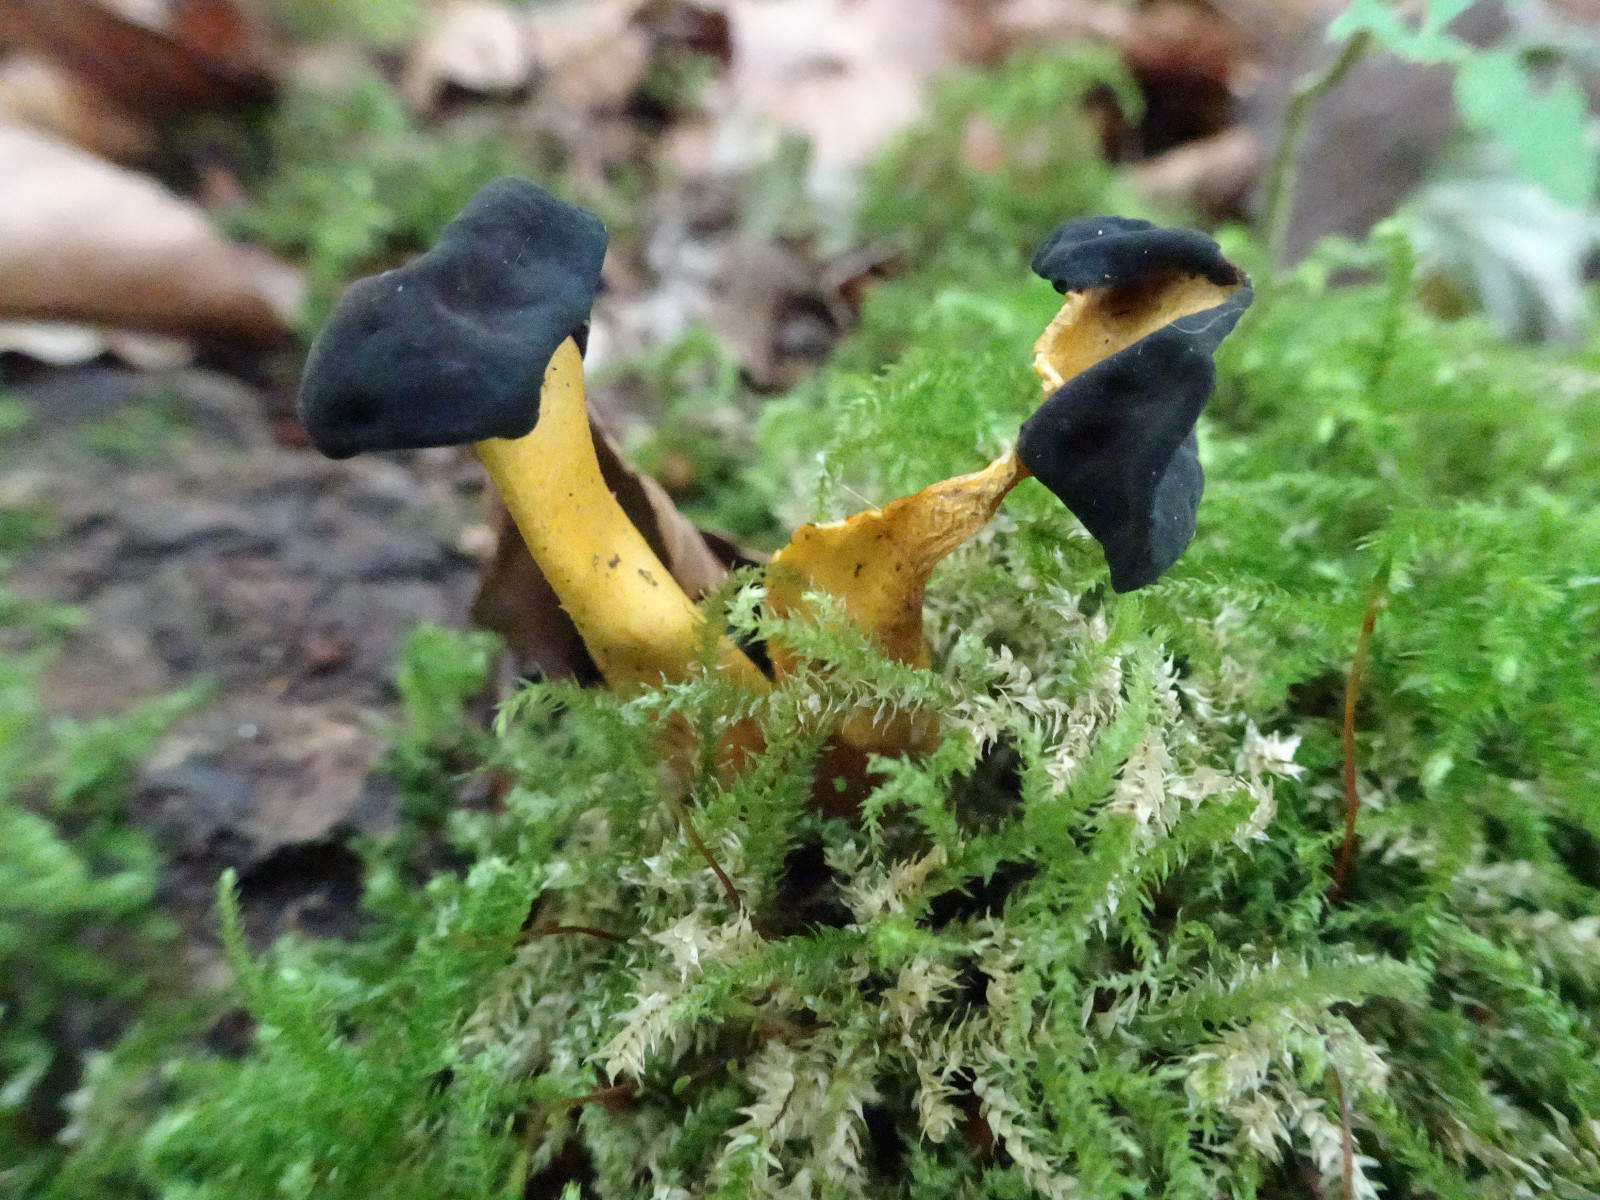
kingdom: Fungi
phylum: Ascomycota
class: Leotiomycetes
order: Leotiales
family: Leotiaceae
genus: Leotia
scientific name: Leotia lubrica
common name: ravsvamp
